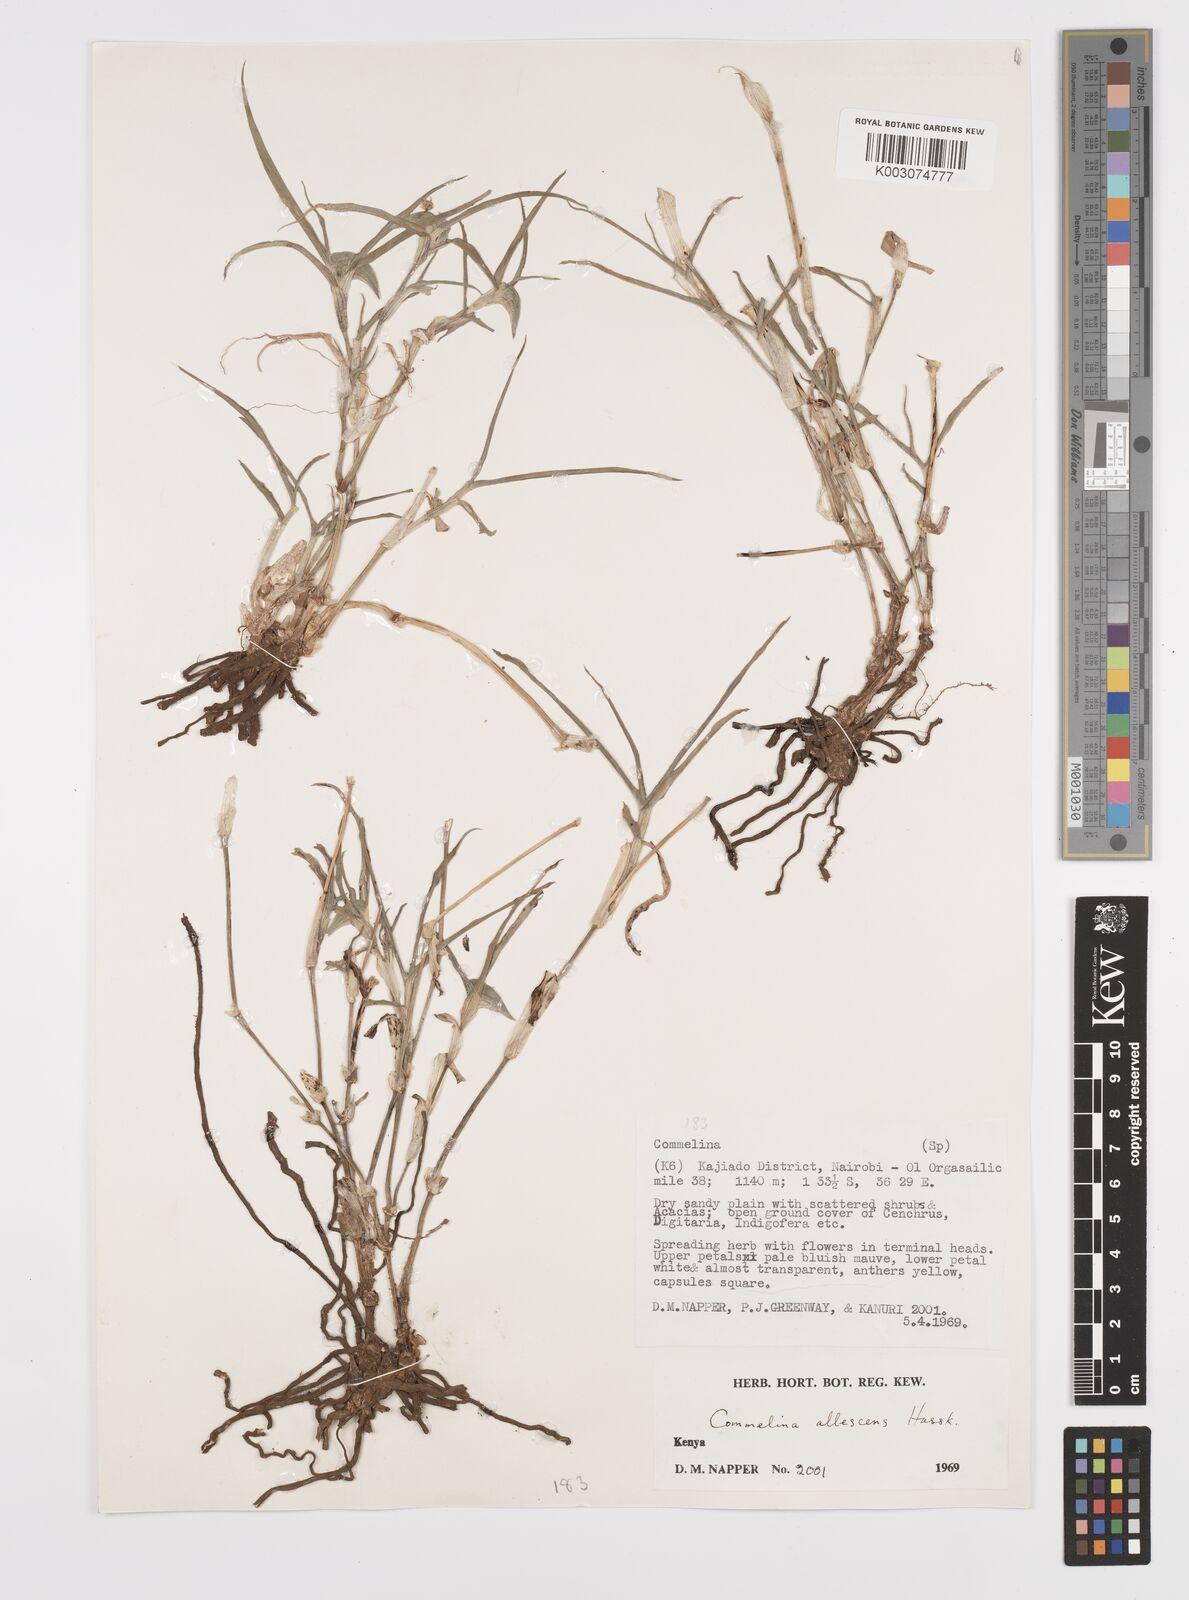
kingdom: Plantae
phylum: Tracheophyta
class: Liliopsida
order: Commelinales
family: Commelinaceae
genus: Commelina
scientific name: Commelina albescens
